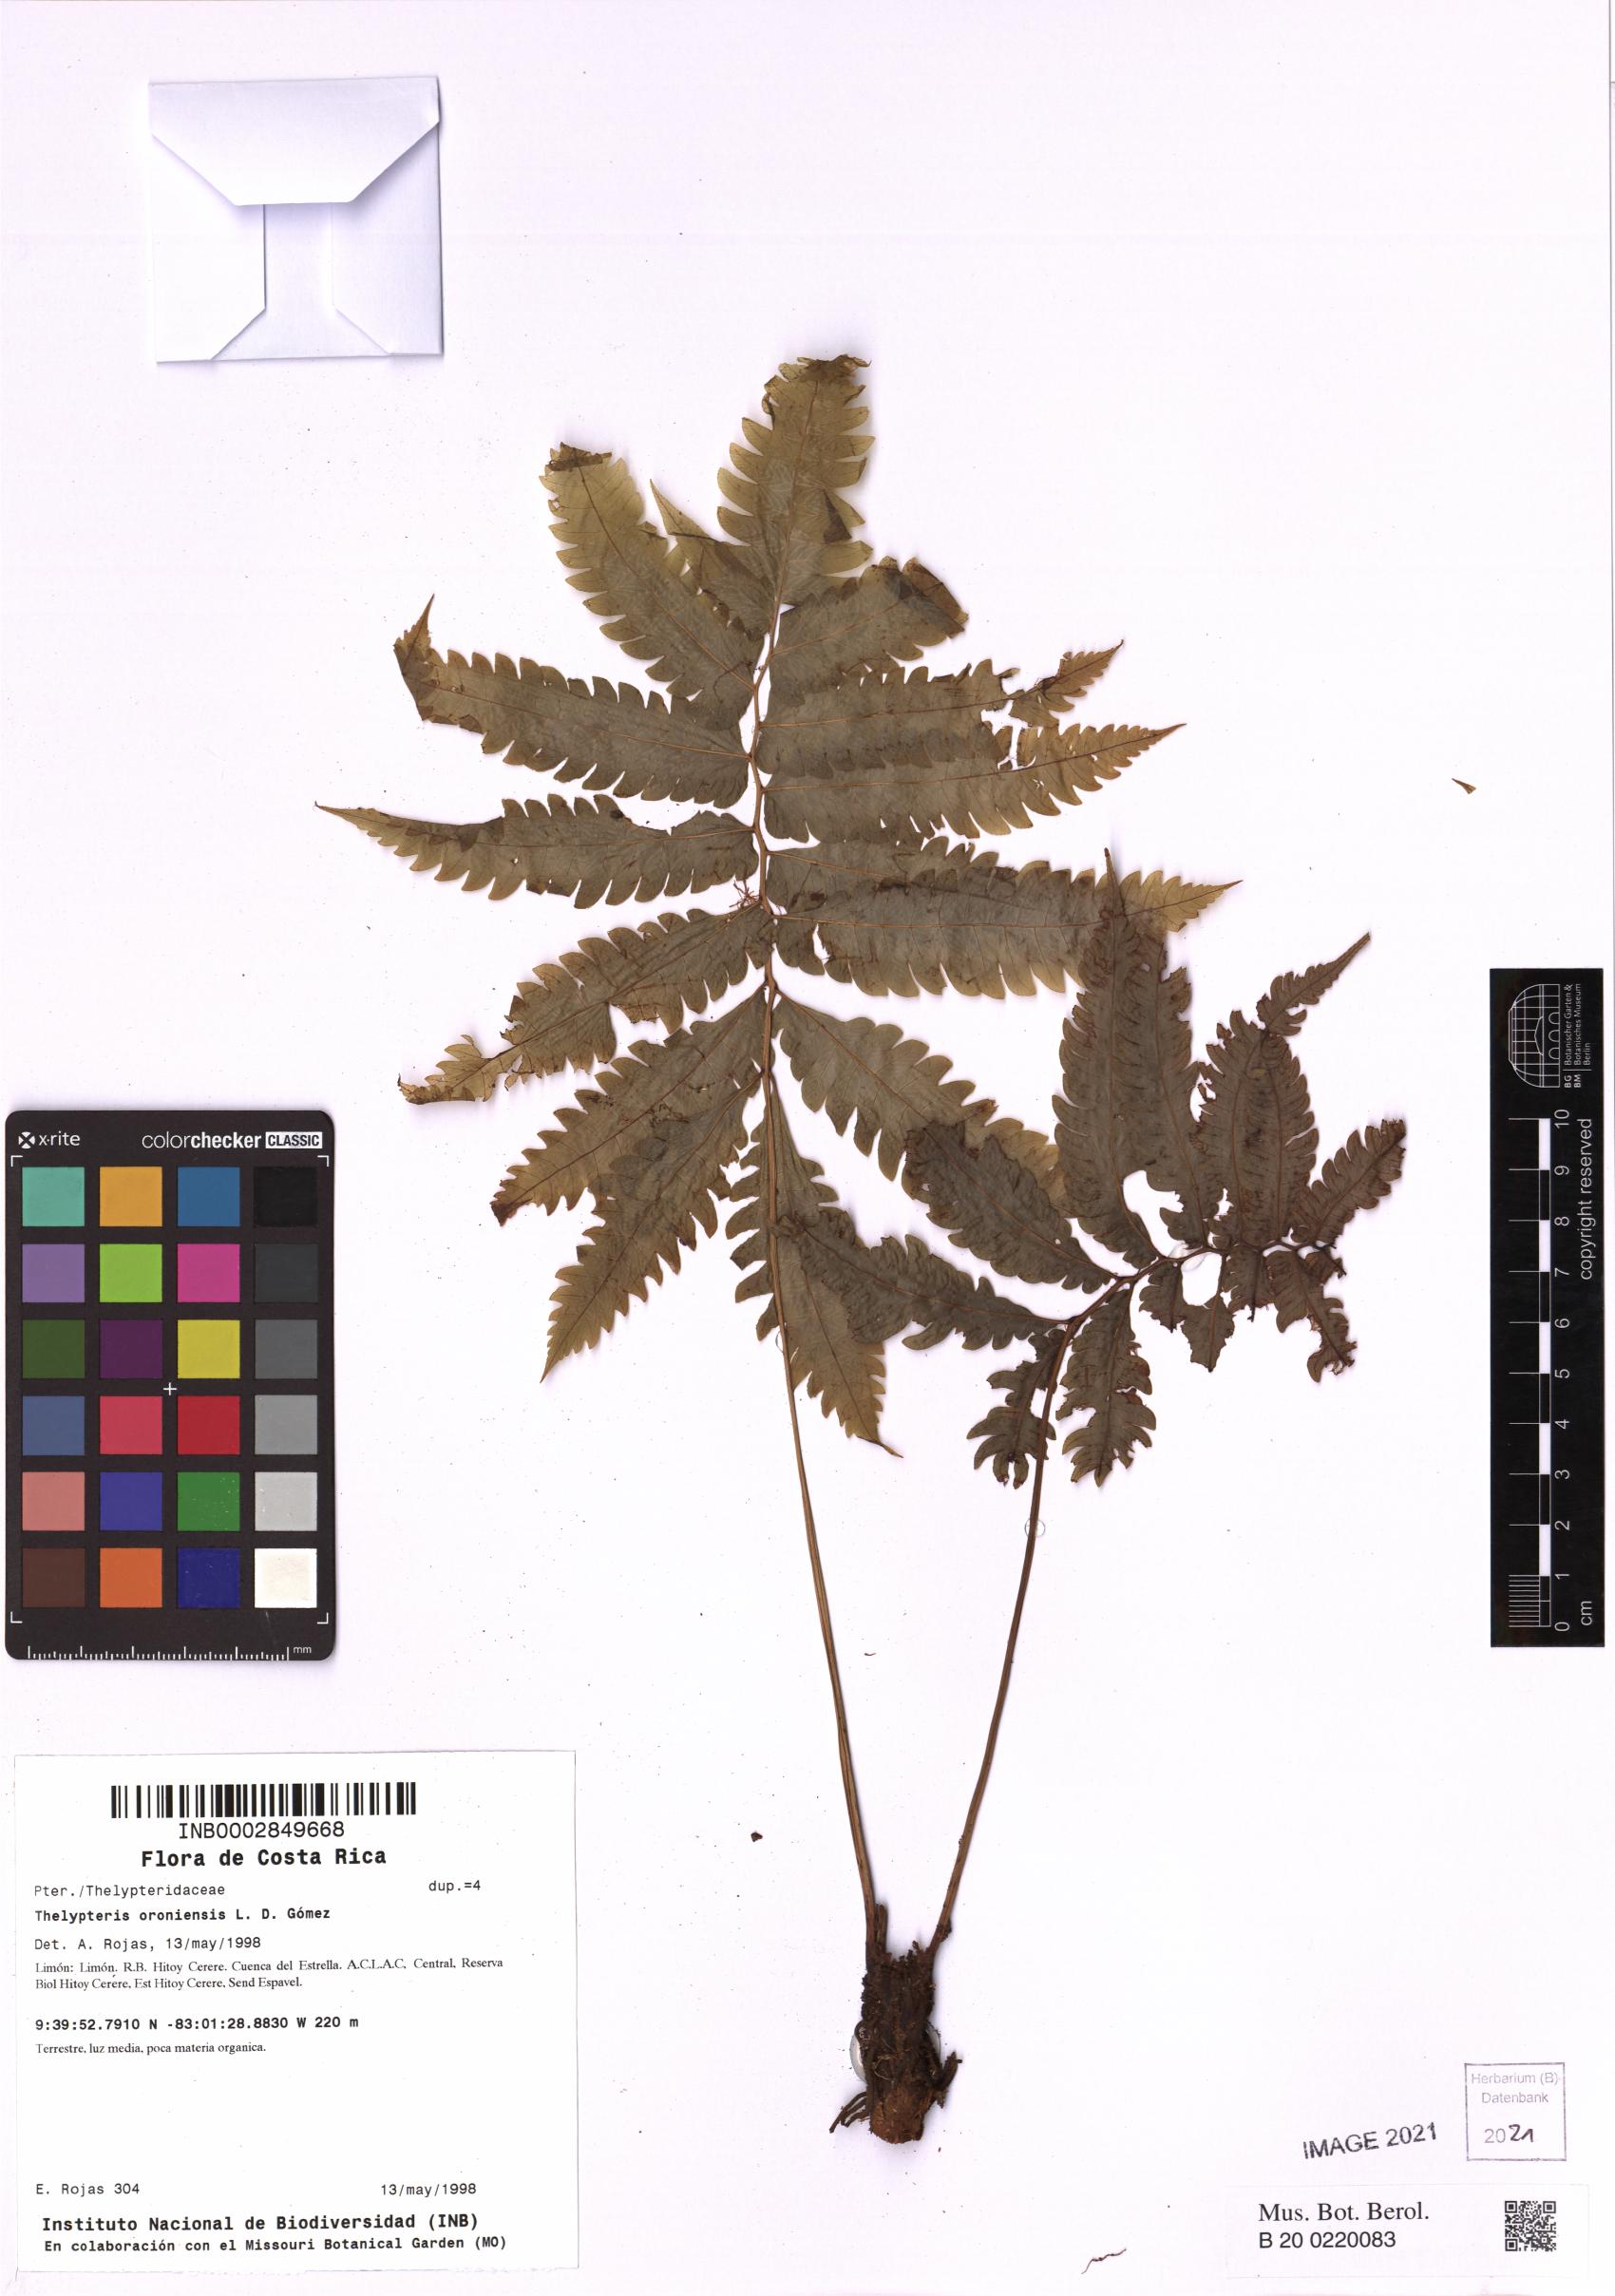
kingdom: Plantae
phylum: Tracheophyta
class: Polypodiopsida
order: Polypodiales
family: Thelypteridaceae
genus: Goniopteris
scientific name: Goniopteris oroniensis
